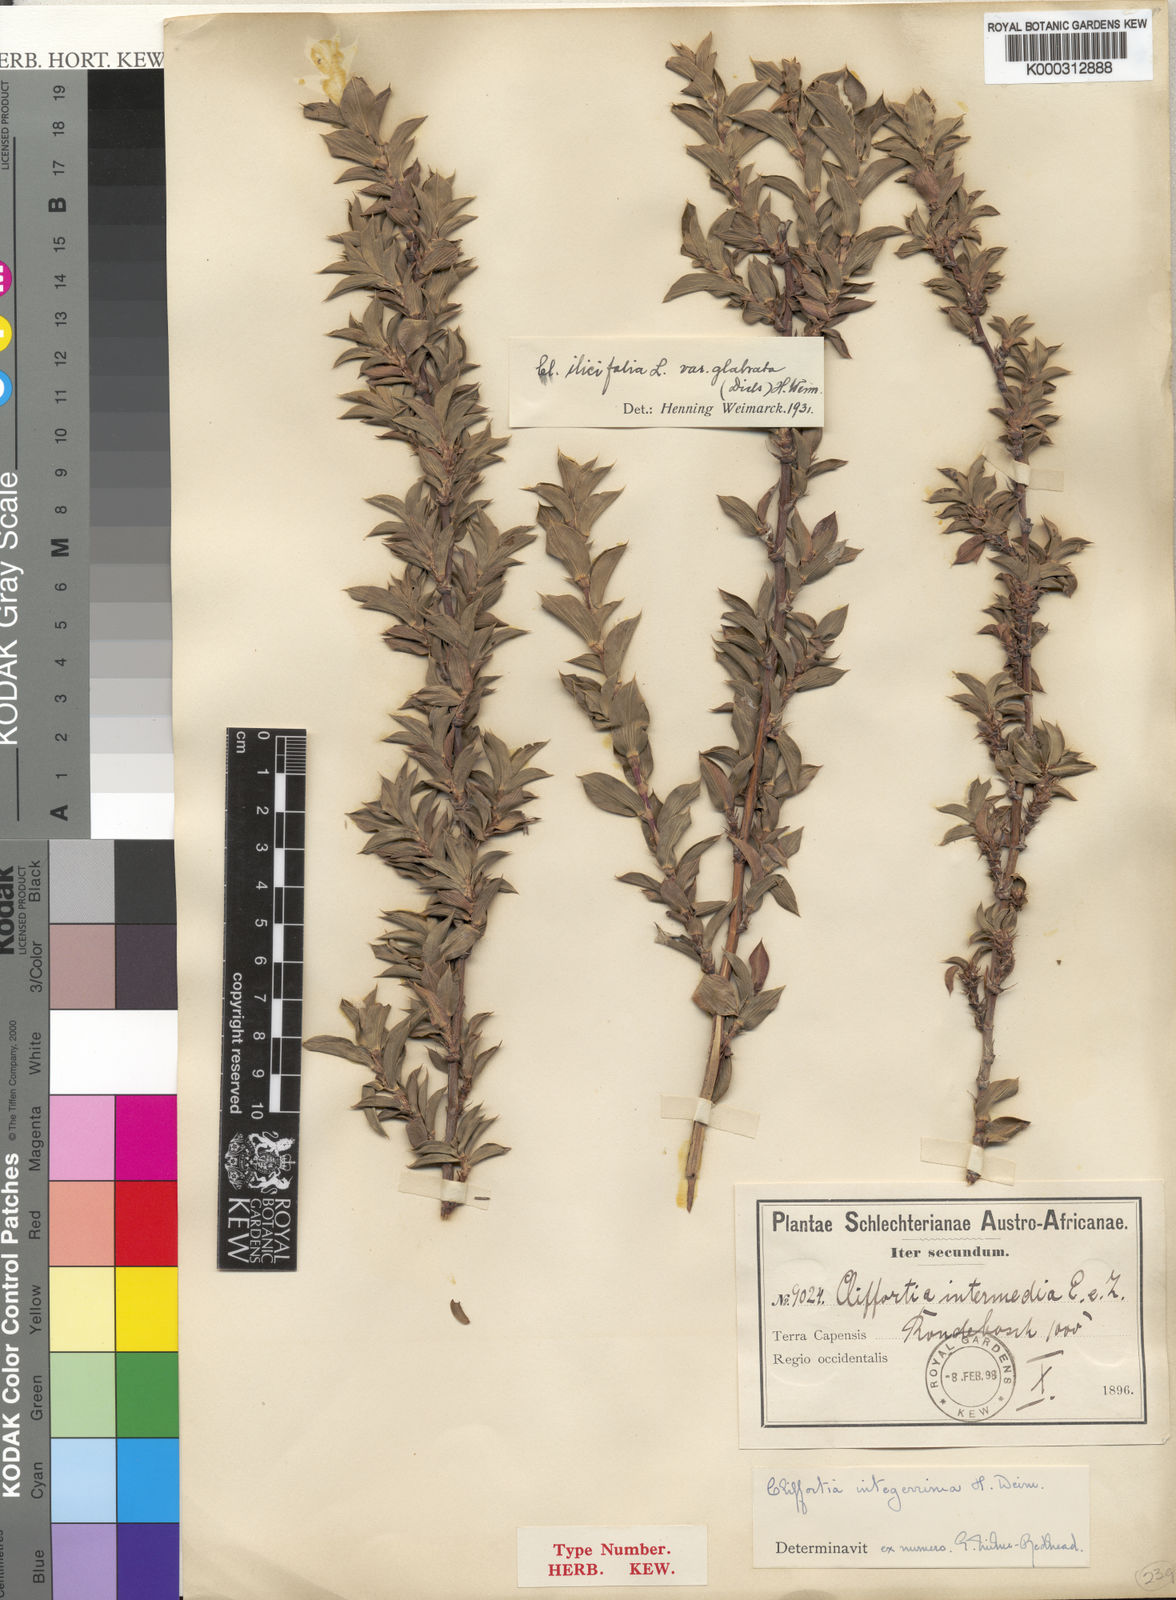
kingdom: Plantae
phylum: Tracheophyta
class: Magnoliopsida
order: Rosales
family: Rosaceae
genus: Cliffortia
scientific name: Cliffortia ilicifolia
